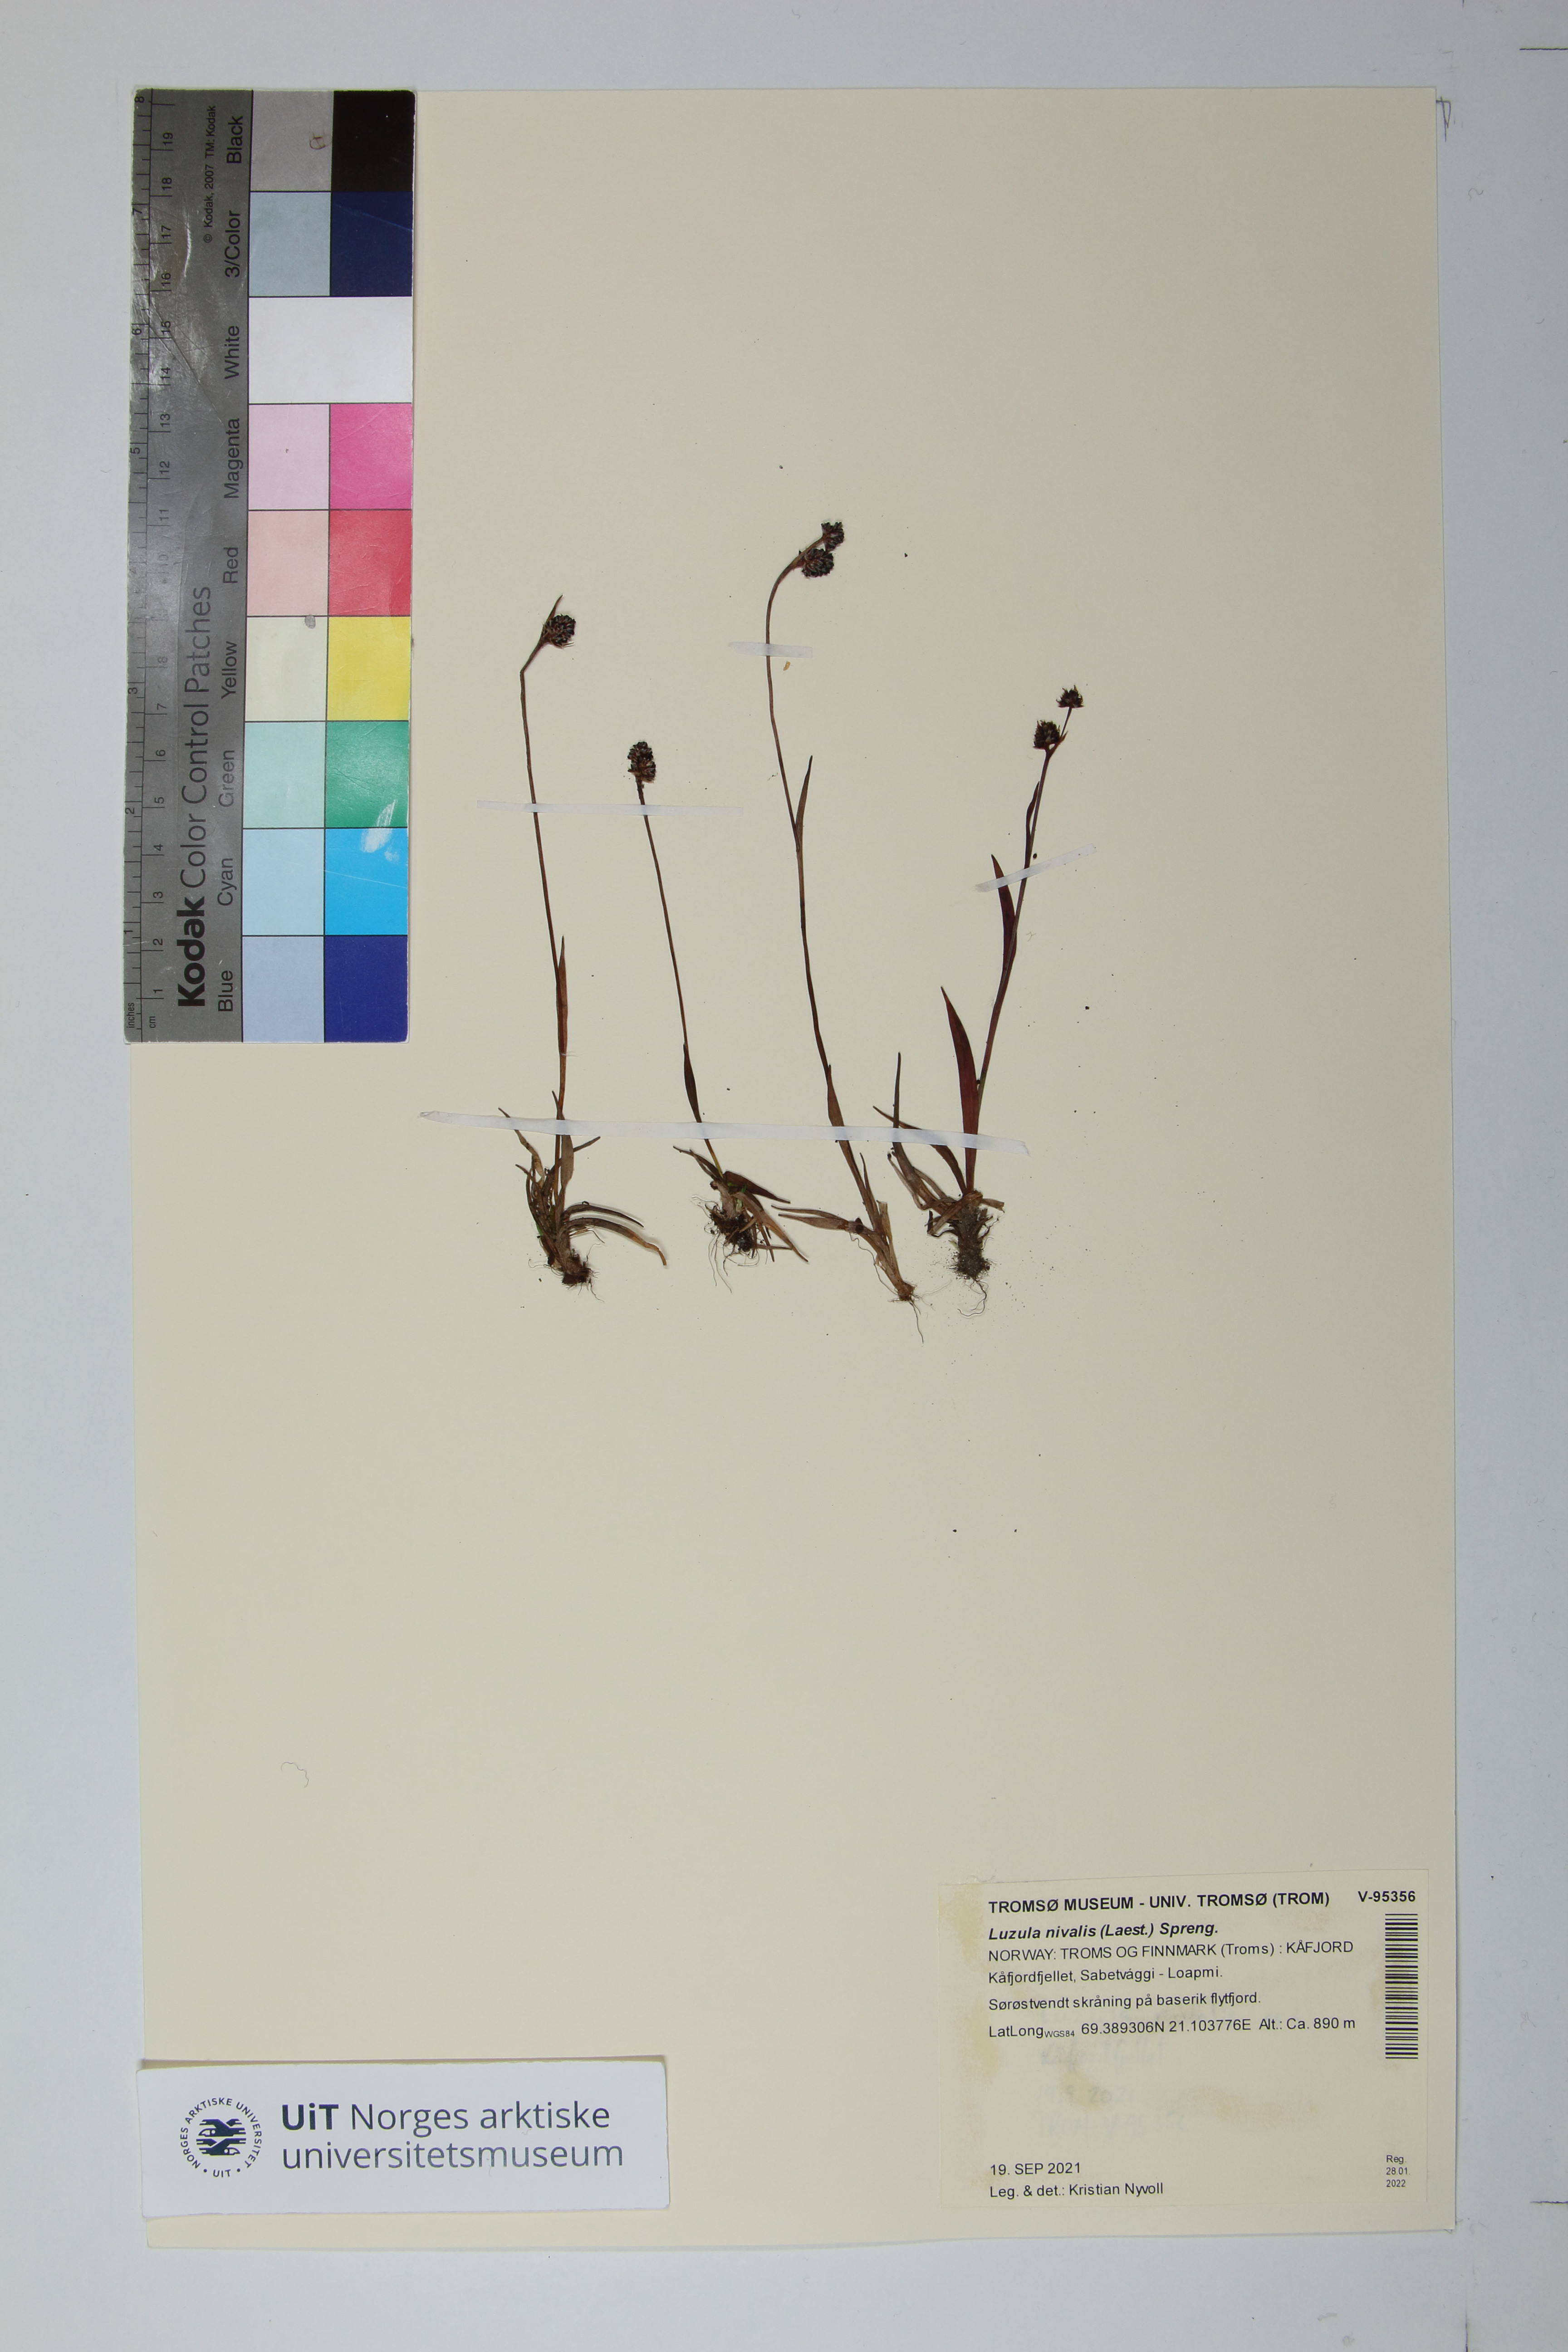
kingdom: Plantae
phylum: Tracheophyta
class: Liliopsida
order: Poales
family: Juncaceae
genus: Luzula
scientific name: Luzula nivalis
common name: Arctic woodrush
